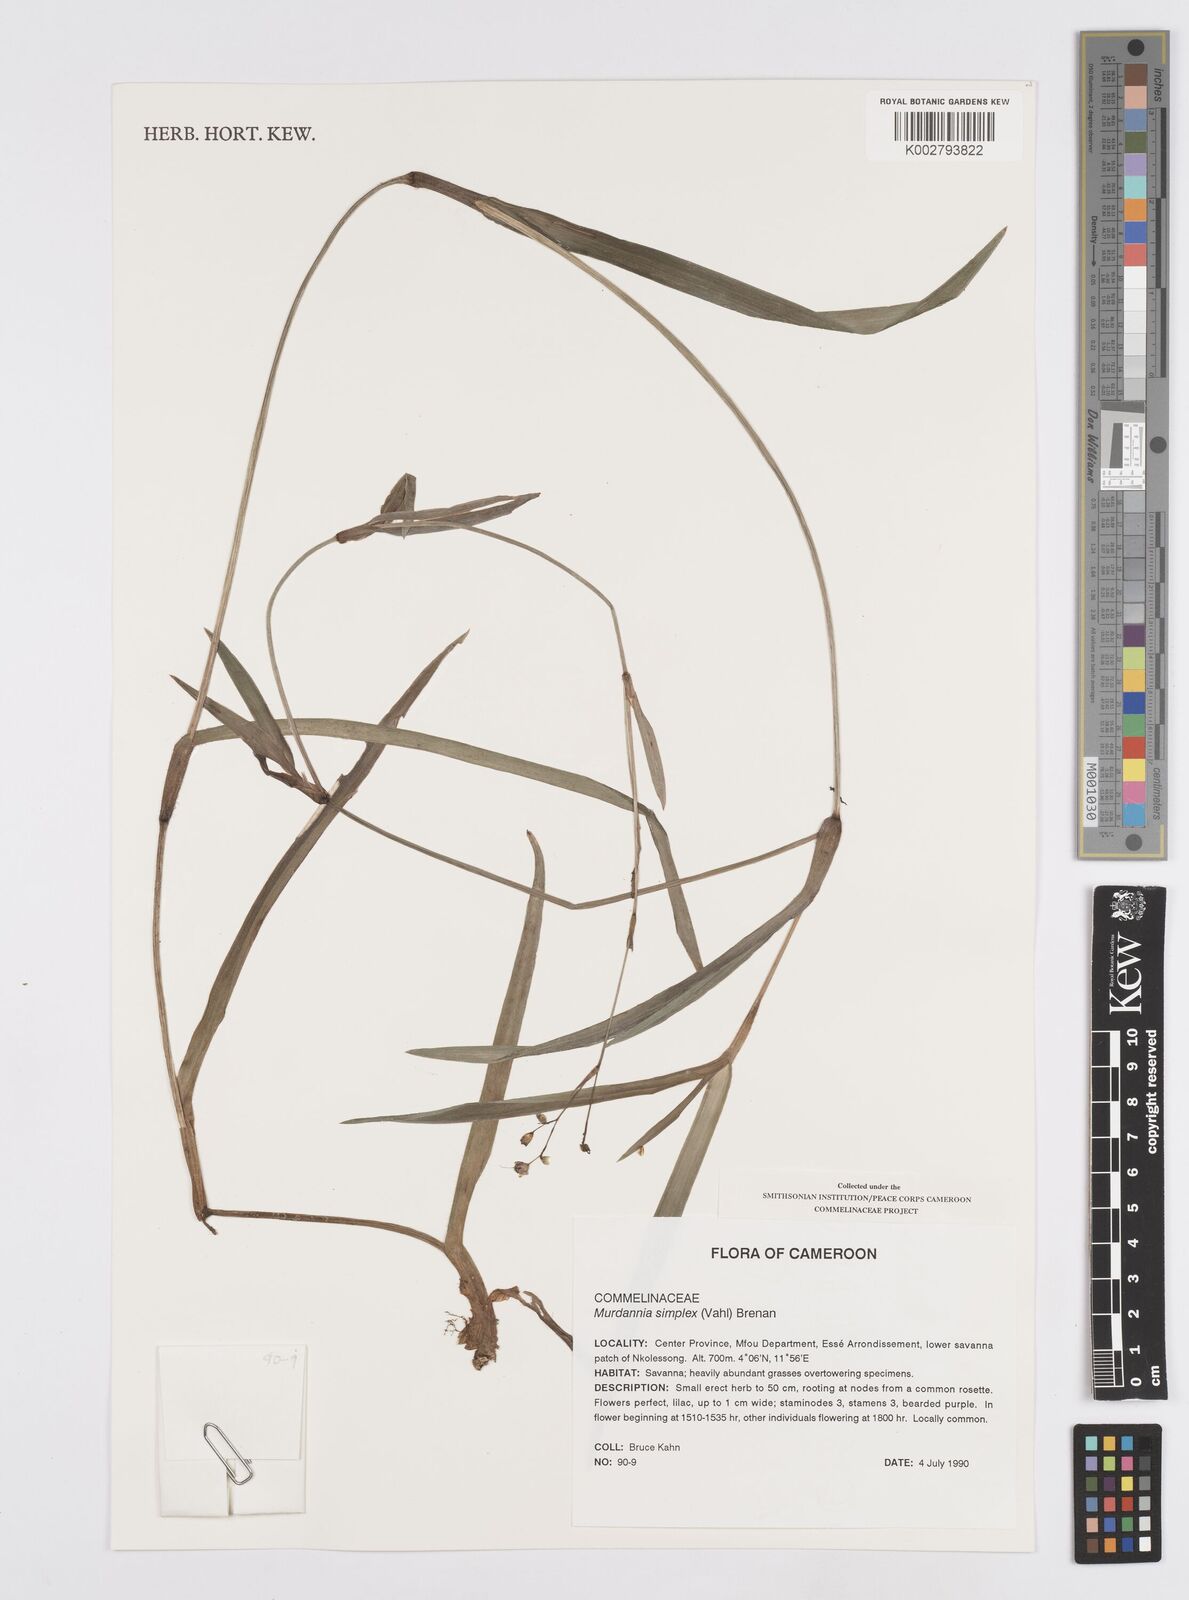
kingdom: Plantae
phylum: Tracheophyta
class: Liliopsida
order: Commelinales
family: Commelinaceae
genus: Murdannia
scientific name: Murdannia simplex
